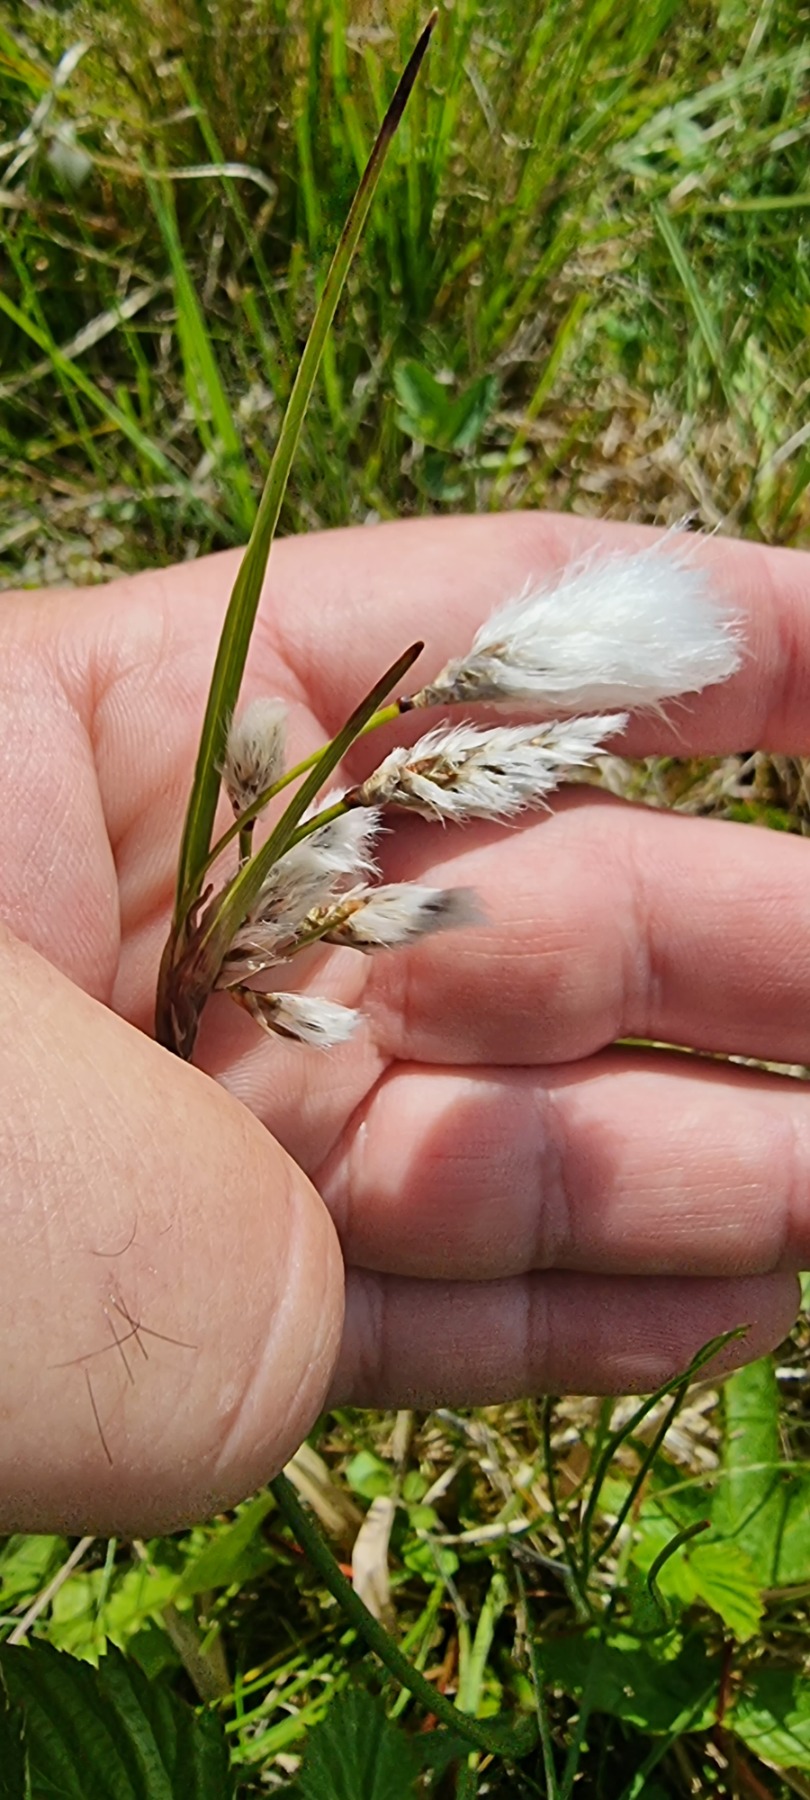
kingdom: Plantae
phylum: Tracheophyta
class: Liliopsida
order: Poales
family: Cyperaceae
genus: Eriophorum
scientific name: Eriophorum angustifolium
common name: Smalbladet kæruld
